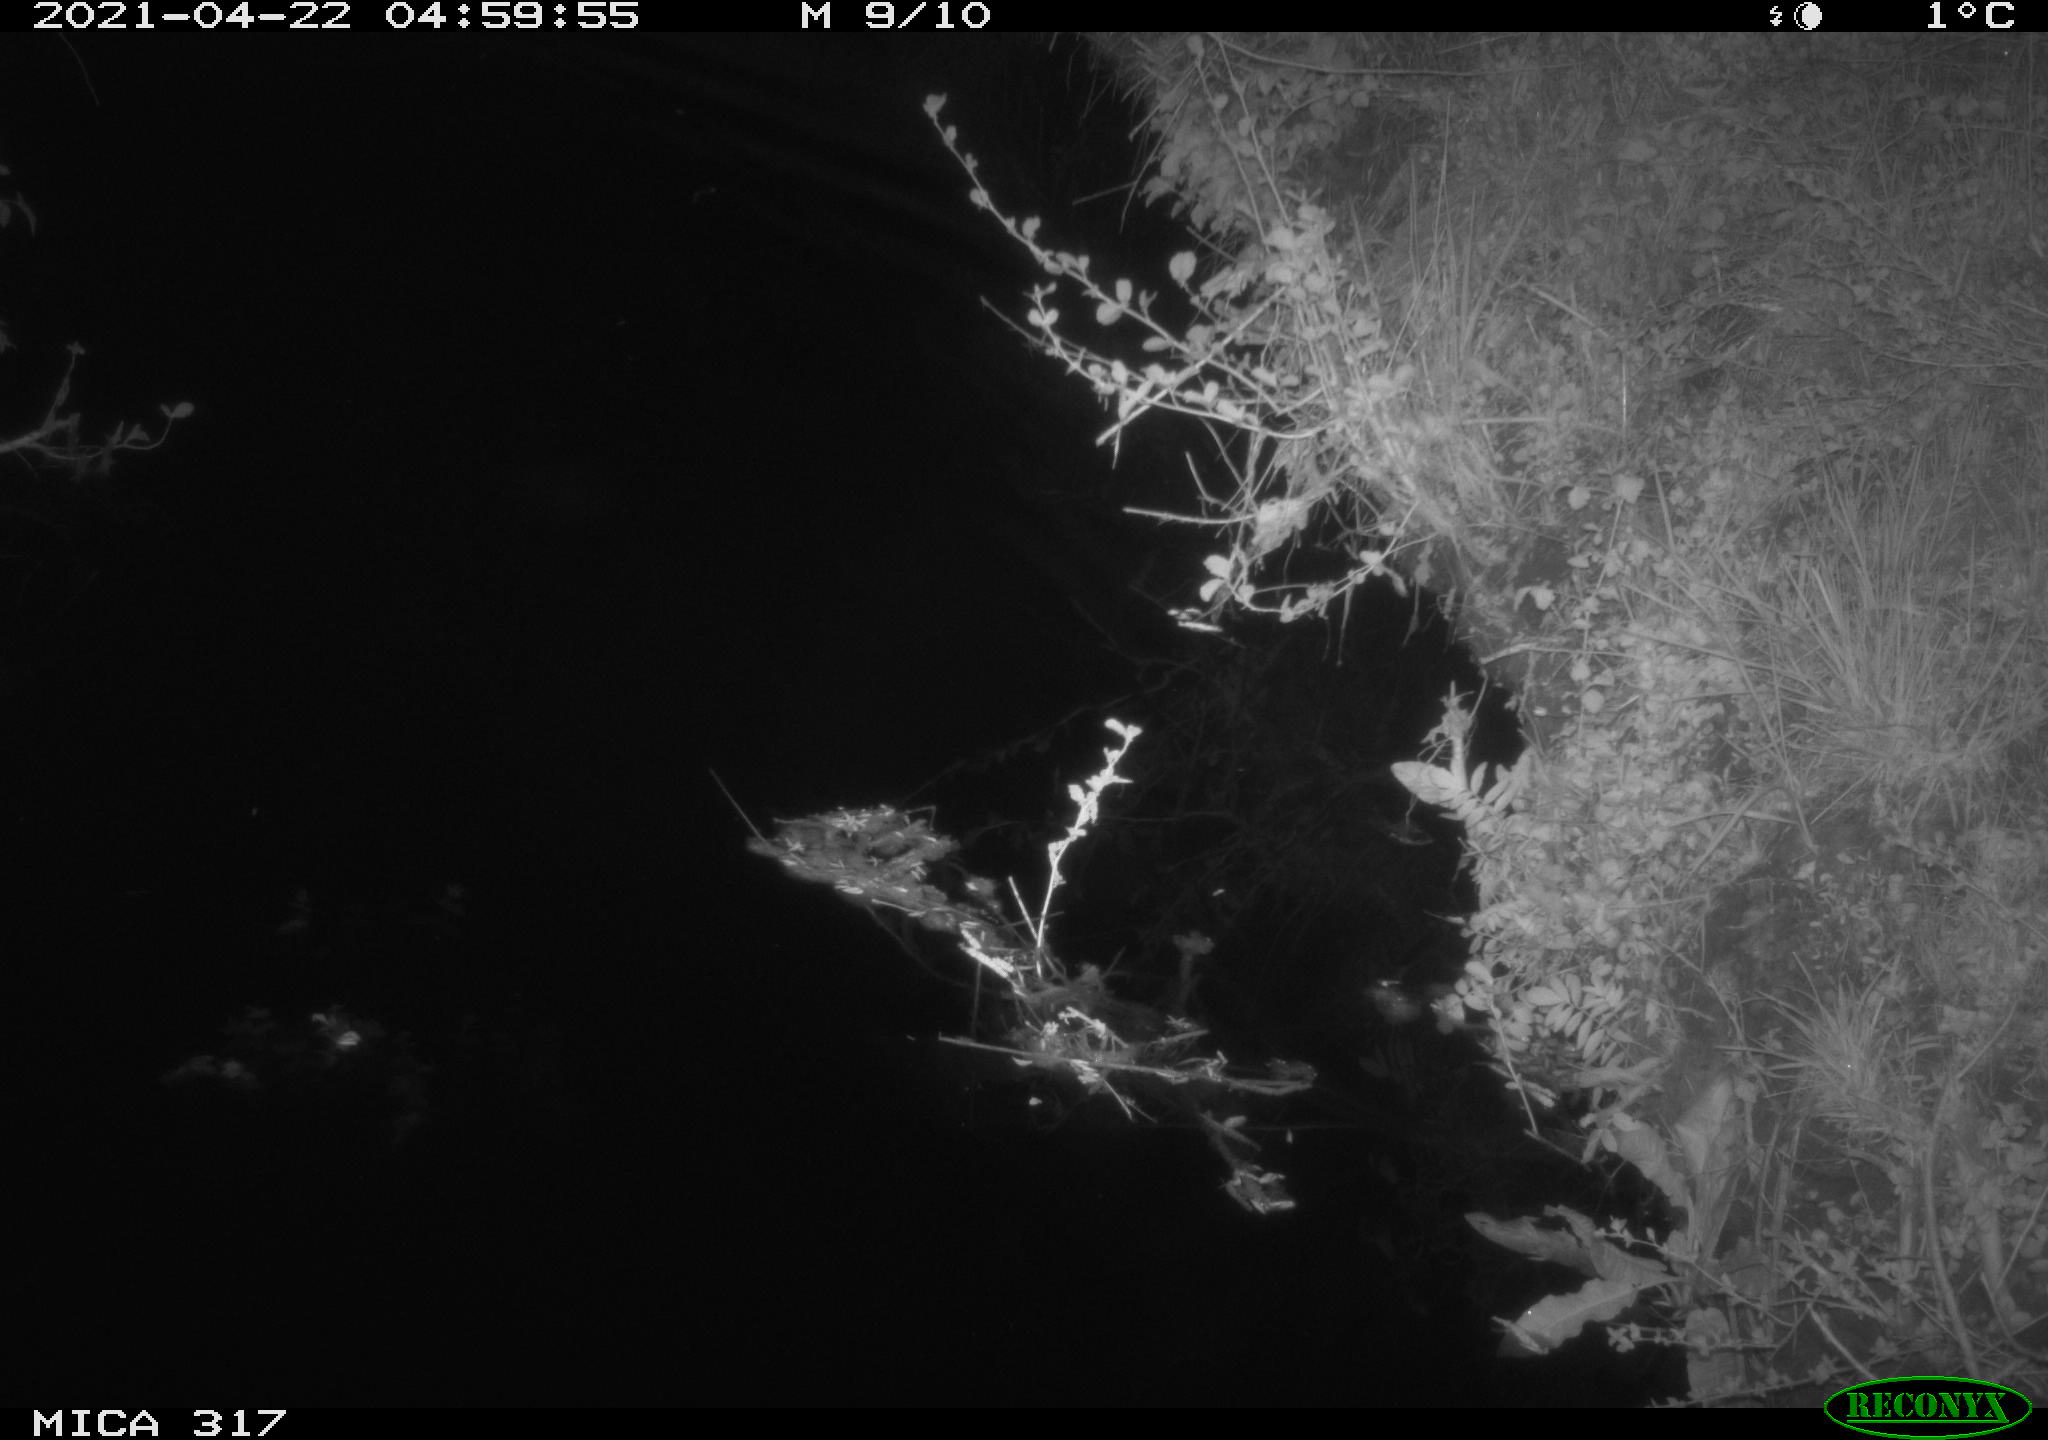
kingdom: Animalia
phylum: Chordata
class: Aves
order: Anseriformes
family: Anatidae
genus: Anas
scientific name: Anas
